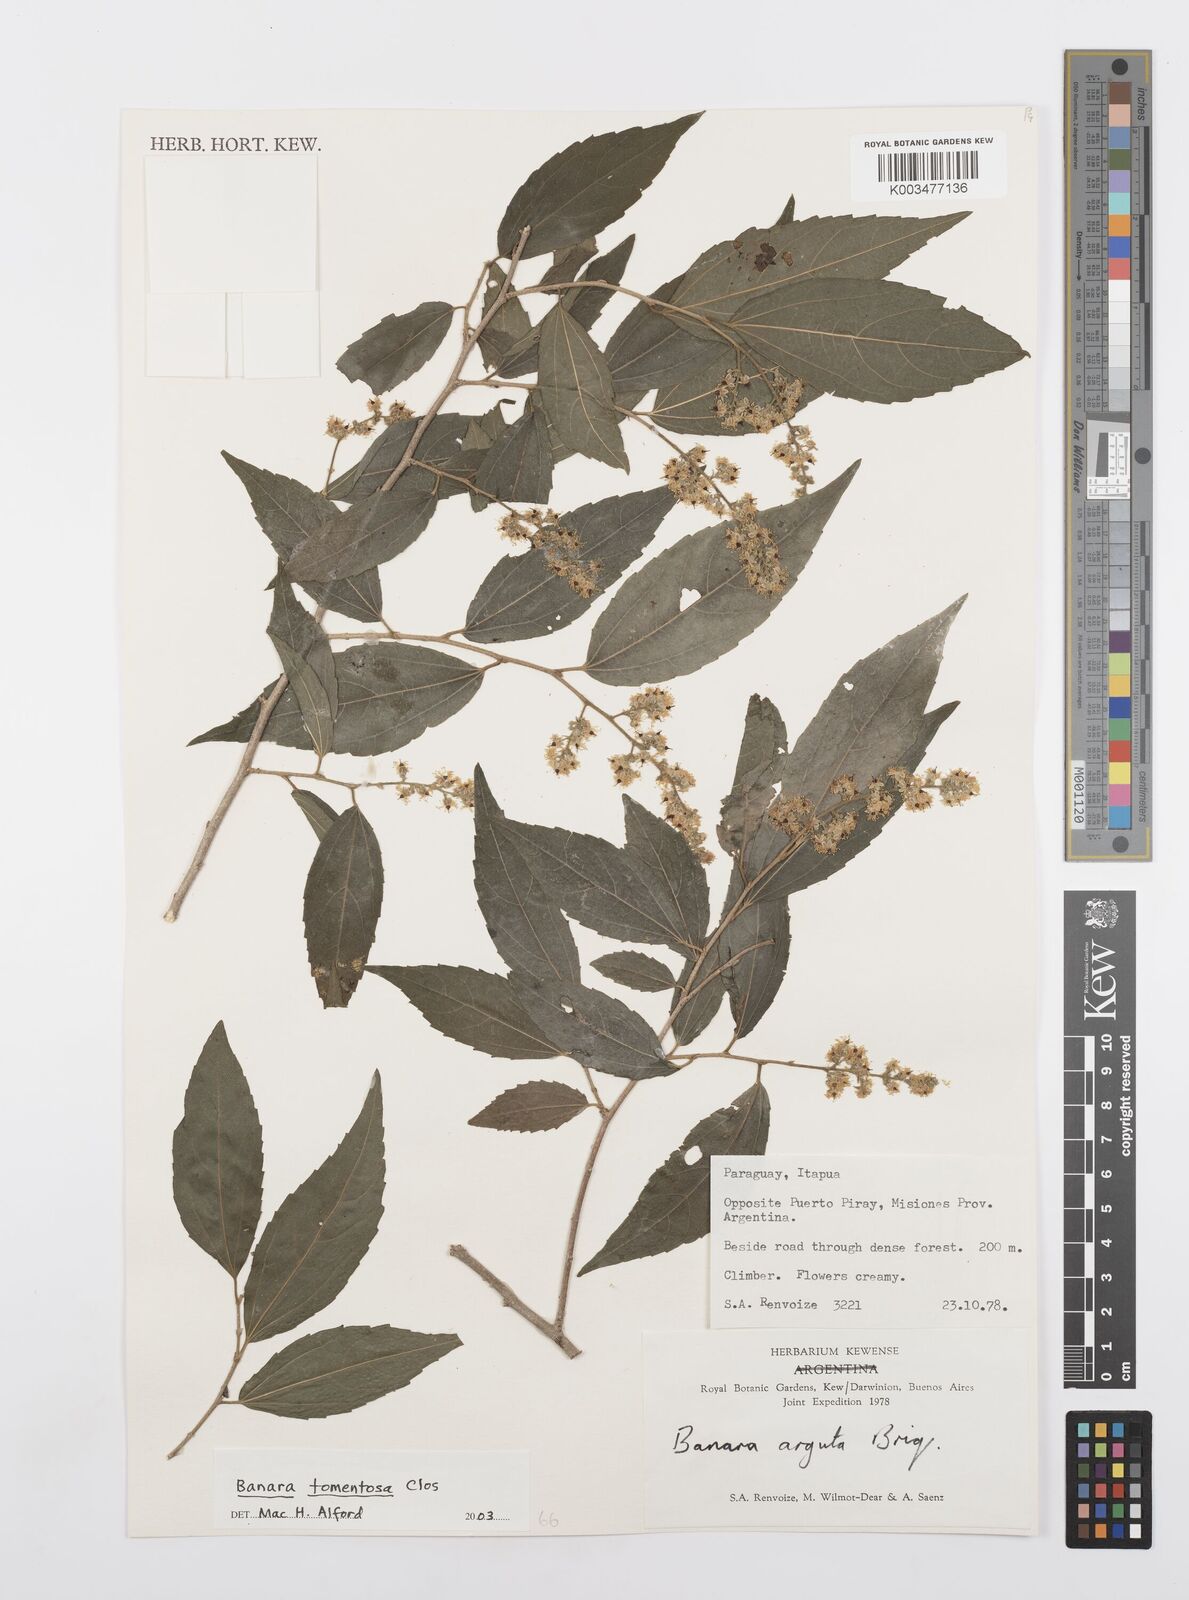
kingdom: Plantae
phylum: Tracheophyta
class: Magnoliopsida
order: Malpighiales
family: Salicaceae
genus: Banara
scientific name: Banara tomentosa
